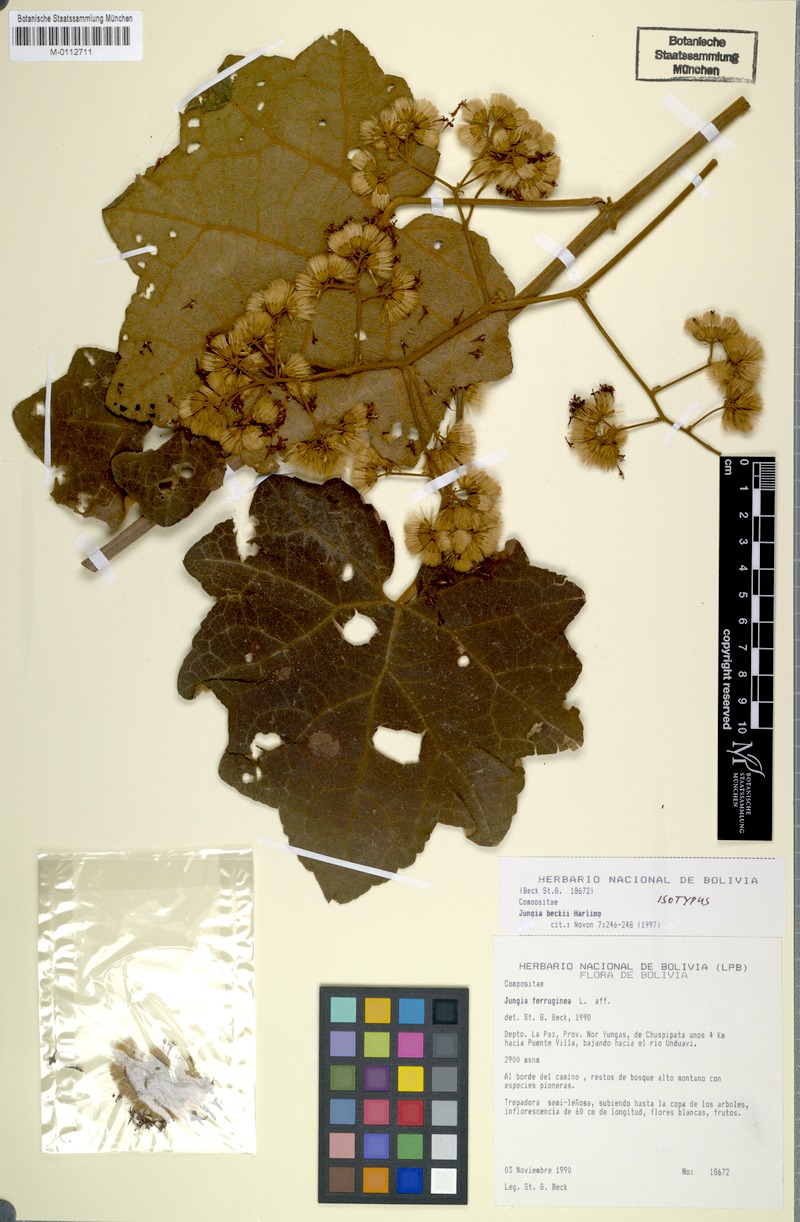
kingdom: Plantae
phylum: Tracheophyta
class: Magnoliopsida
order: Asterales
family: Asteraceae
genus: Jungia
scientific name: Jungia beckii
